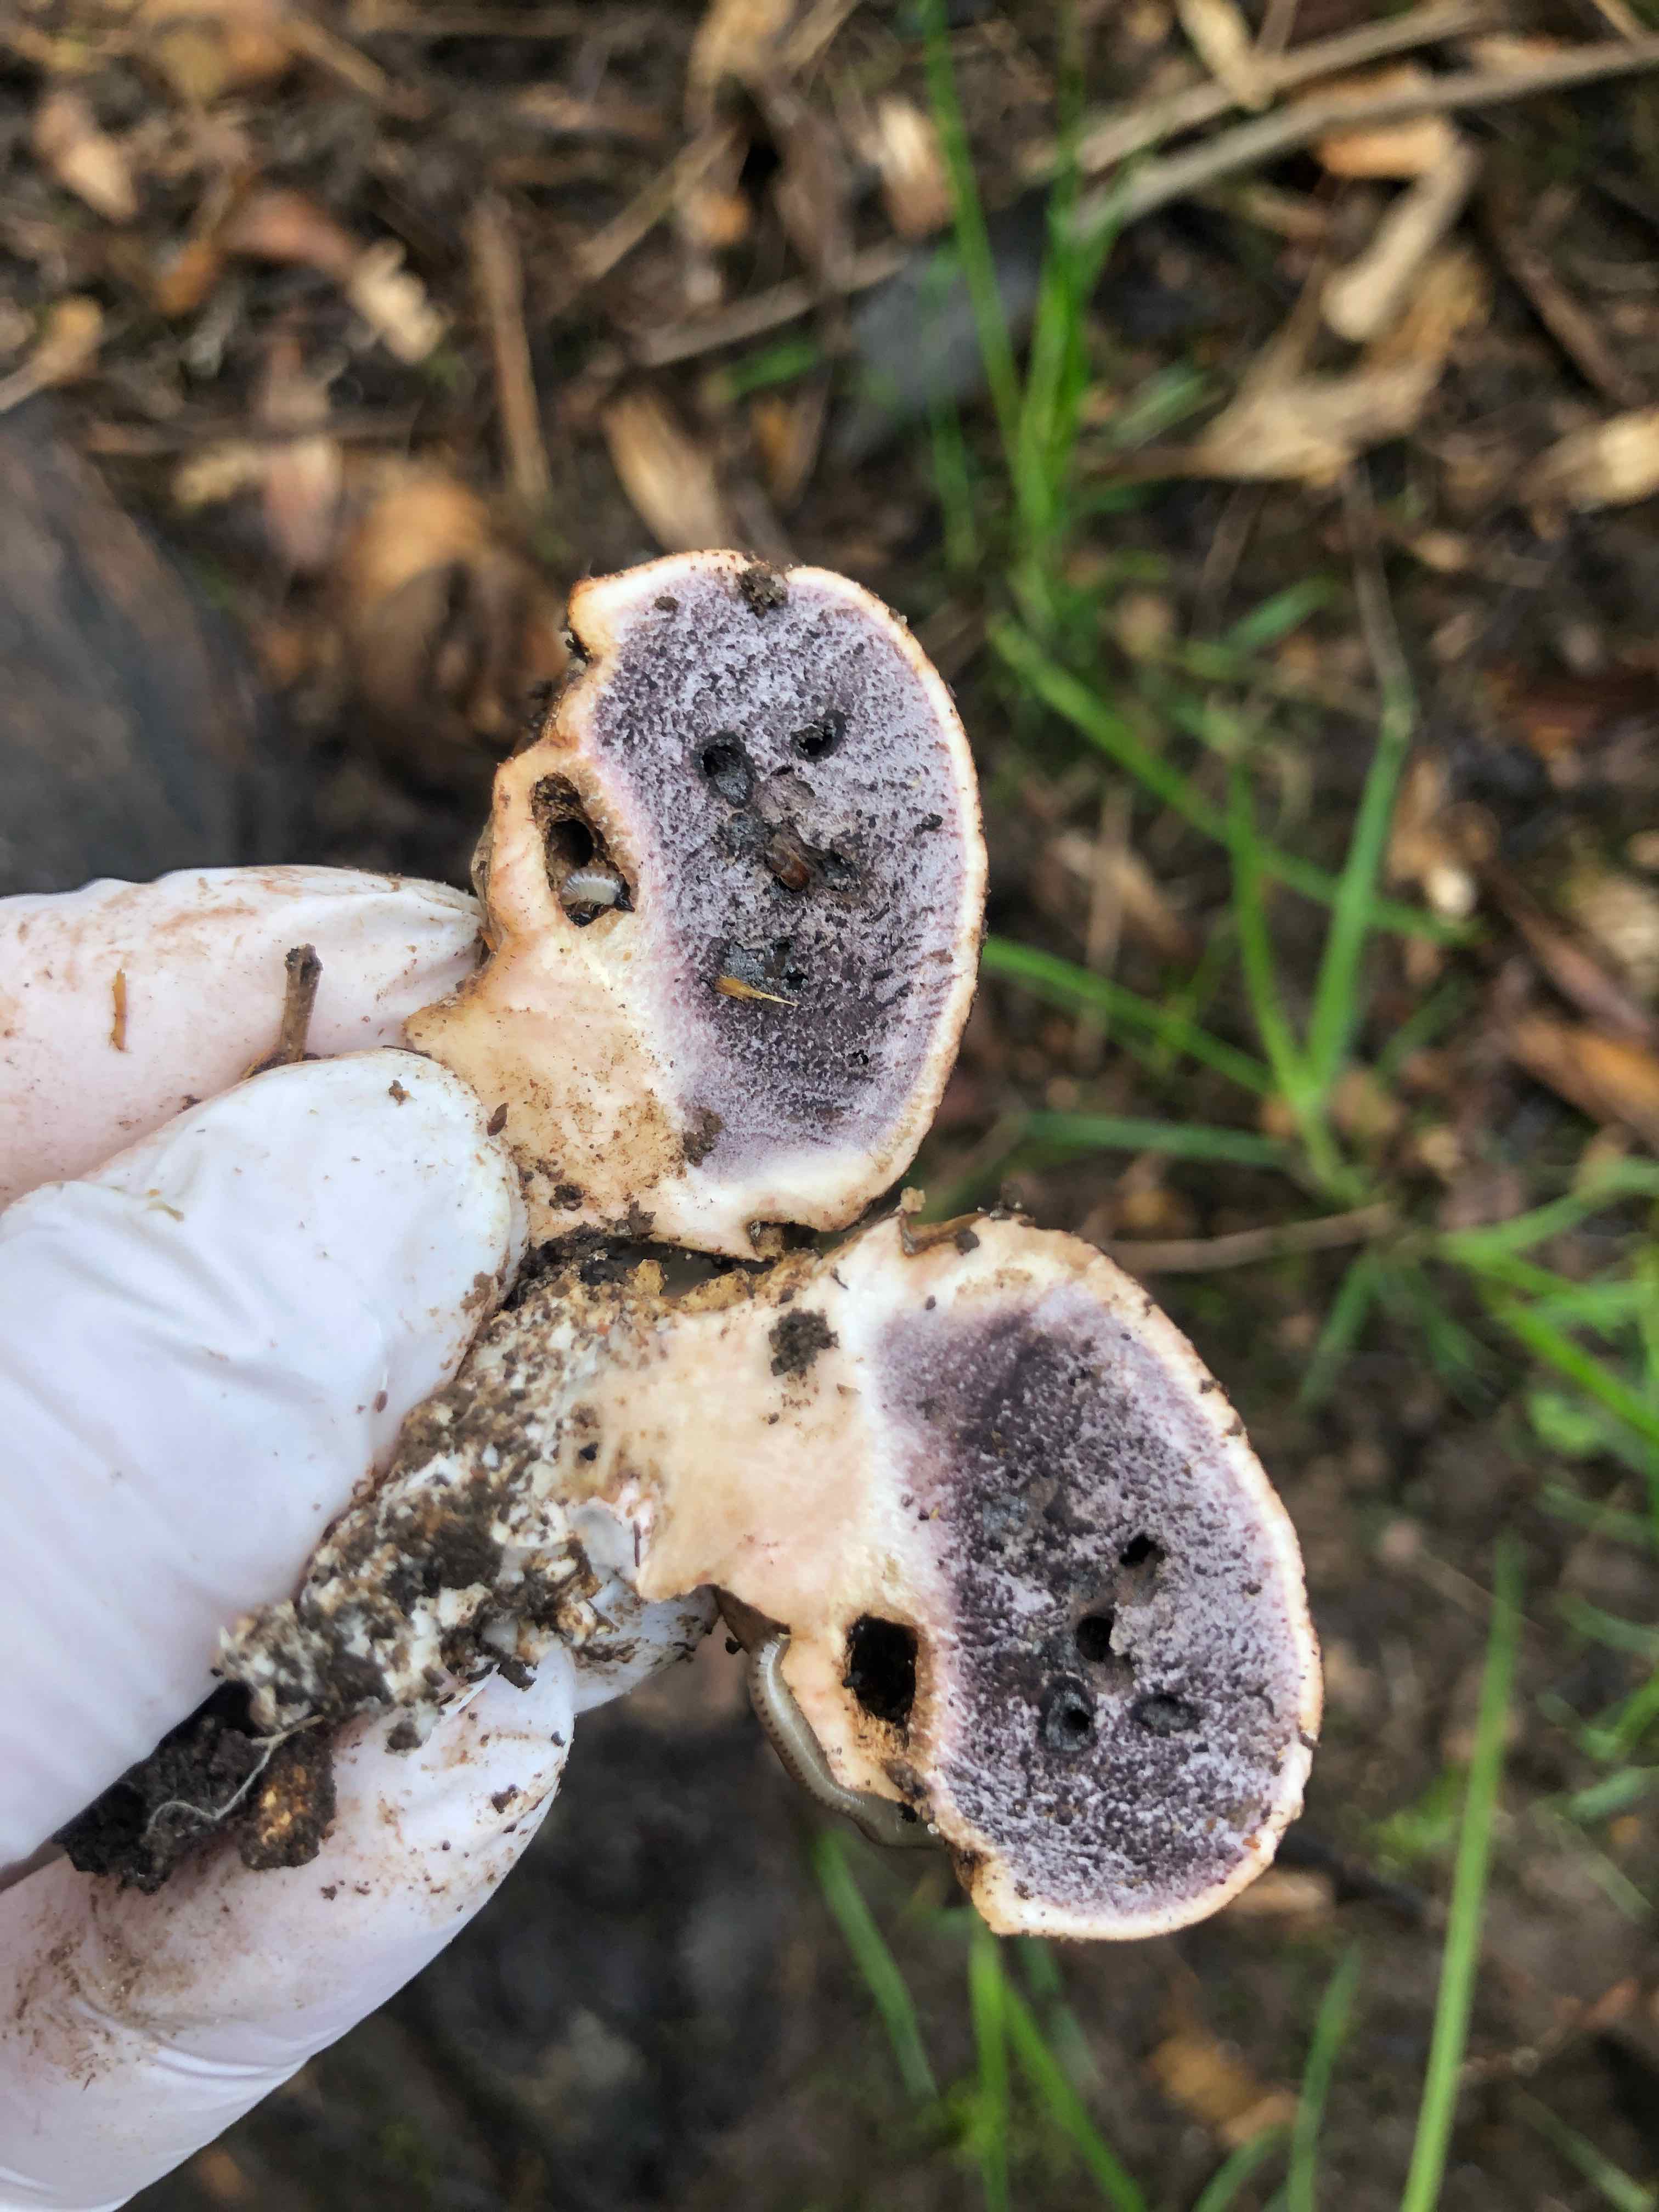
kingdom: Fungi
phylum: Basidiomycota
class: Agaricomycetes
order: Boletales
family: Sclerodermataceae
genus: Scleroderma
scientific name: Scleroderma
